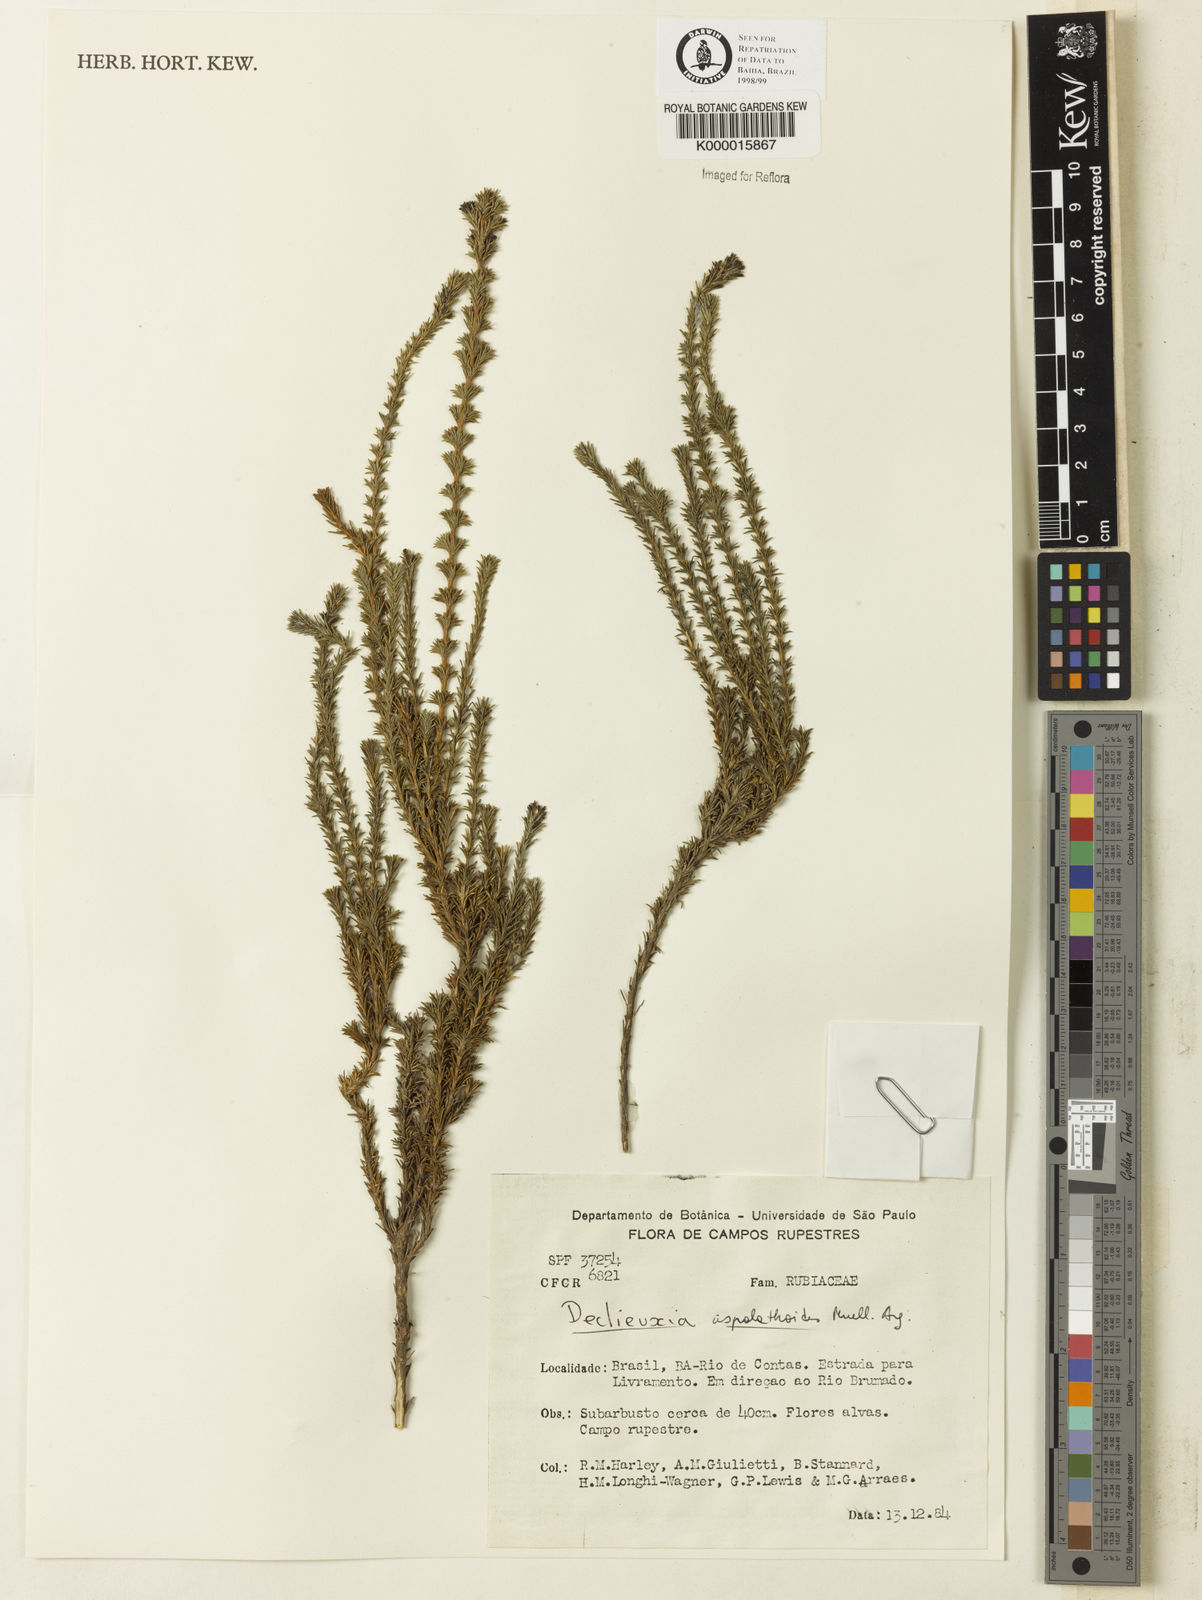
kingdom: Plantae
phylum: Tracheophyta
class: Magnoliopsida
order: Gentianales
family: Rubiaceae
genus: Declieuxia
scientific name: Declieuxia aspalathoides
